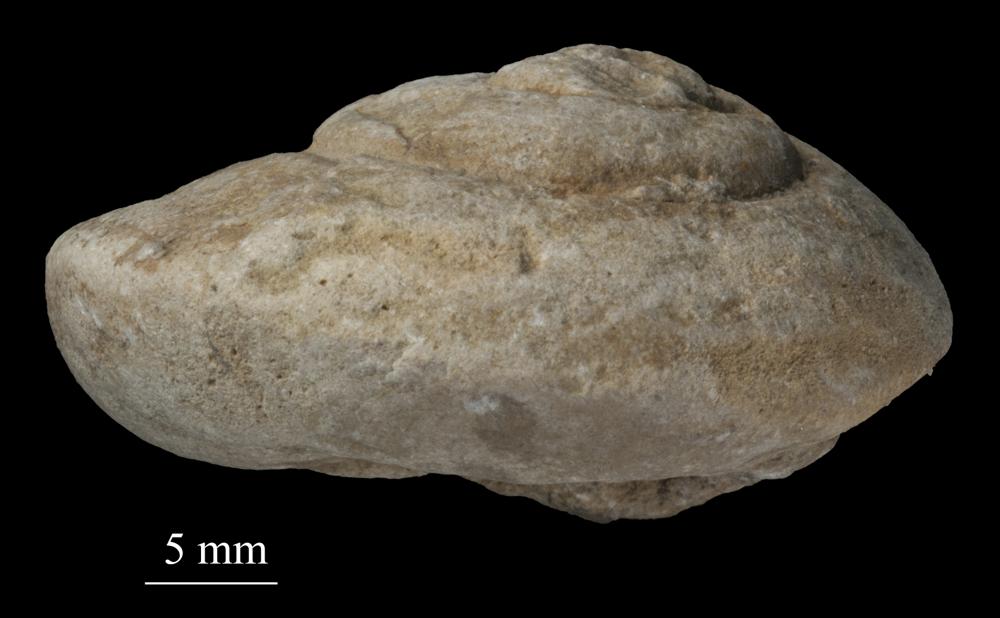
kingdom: Animalia
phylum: Mollusca
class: Gastropoda
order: Pleurotomariida
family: Pleurotomariidae
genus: Pleurotomaria
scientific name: Pleurotomaria
